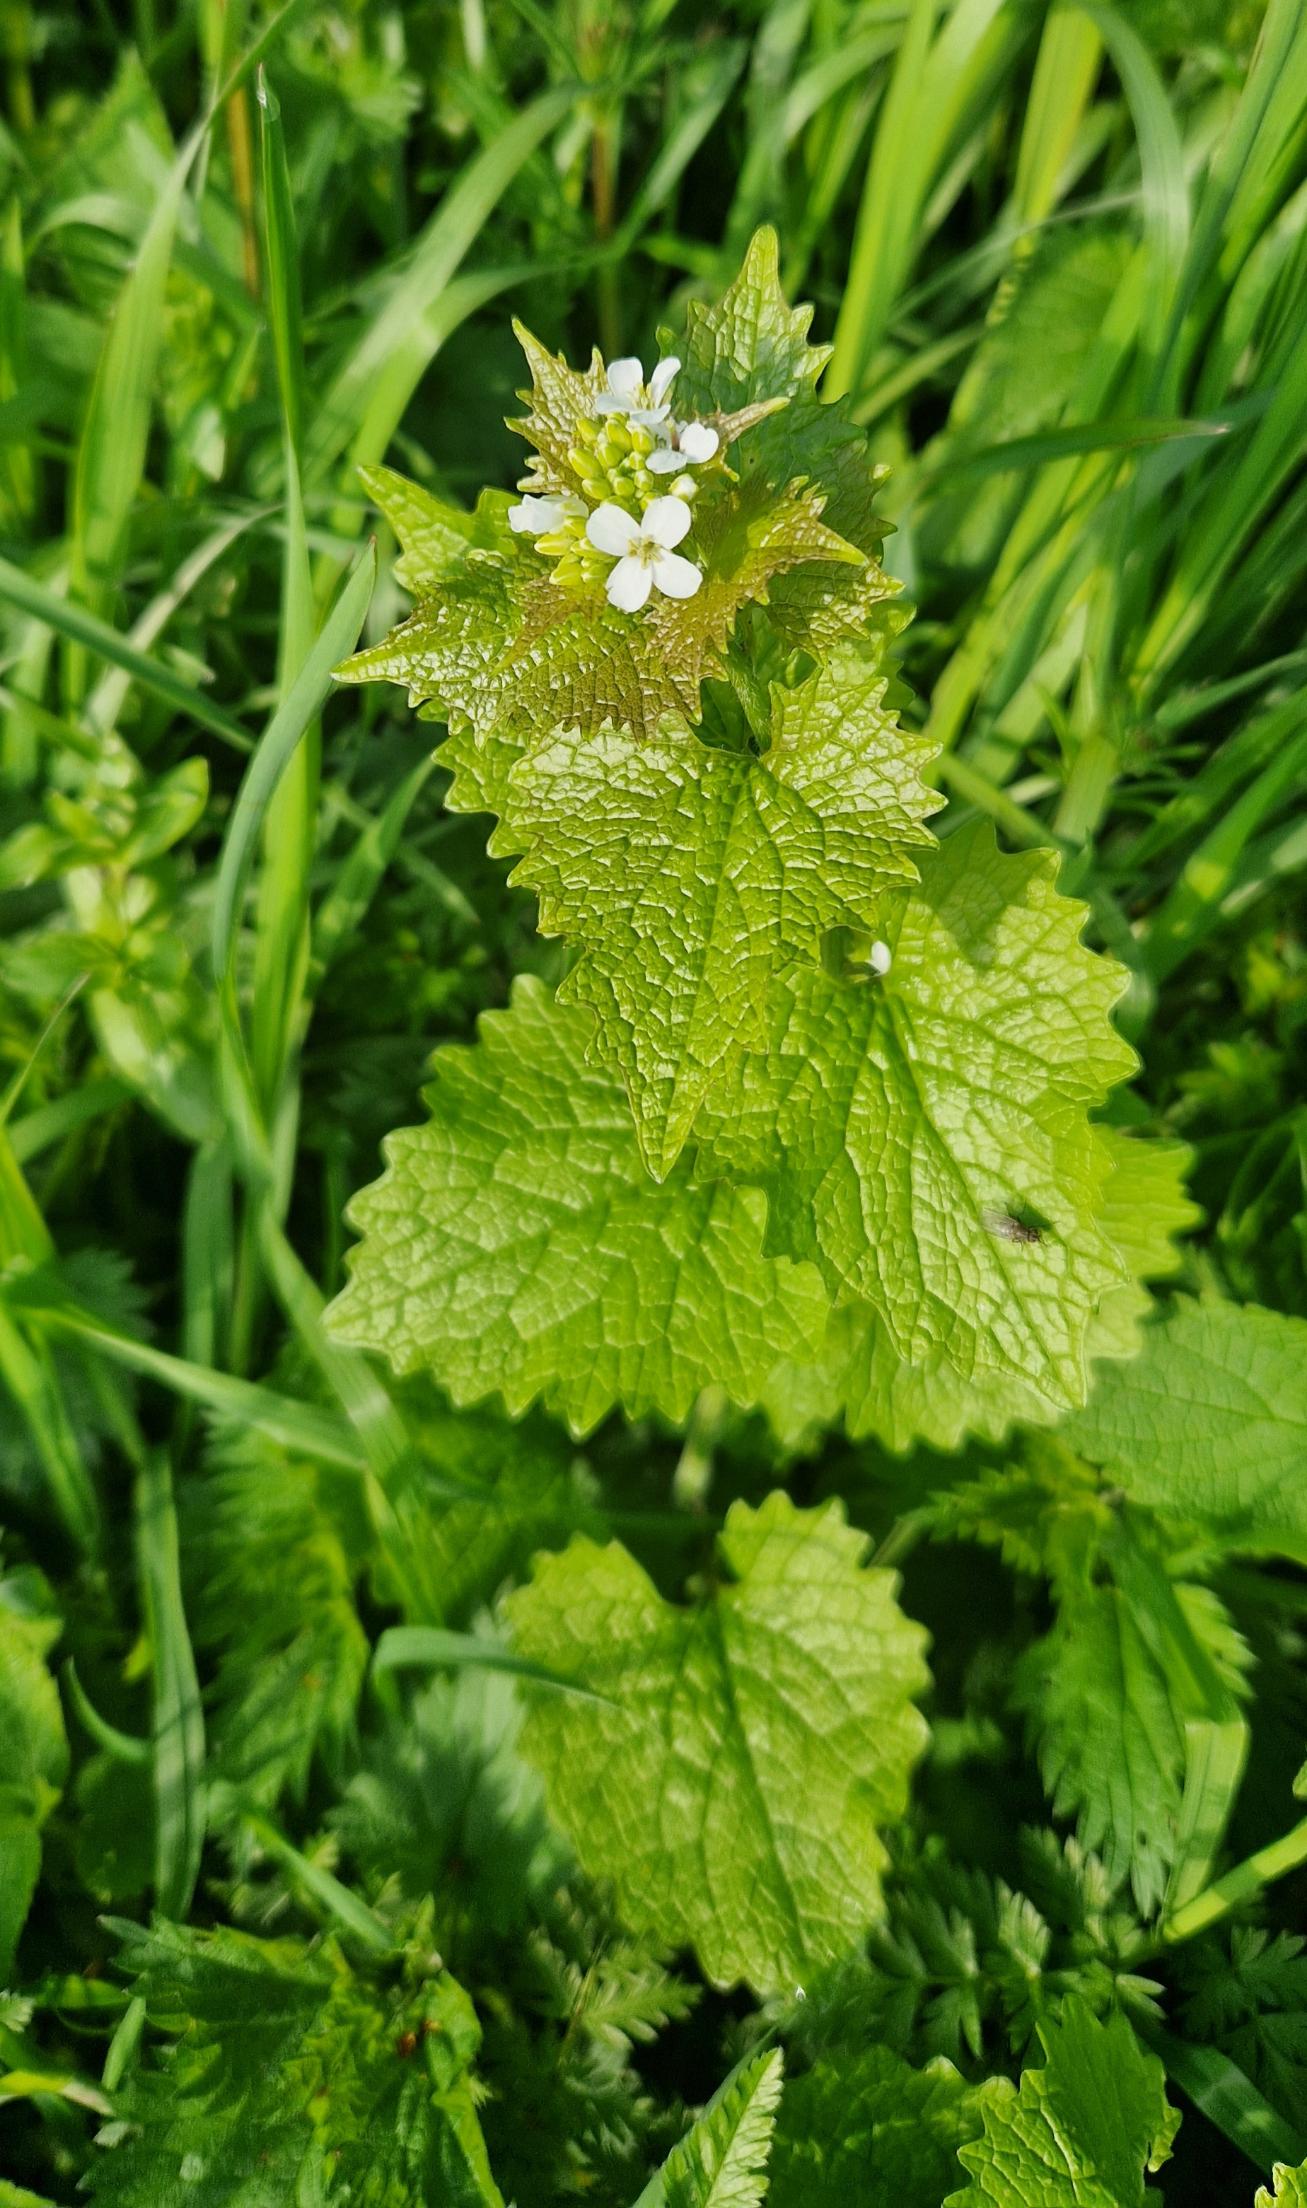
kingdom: Plantae
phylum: Tracheophyta
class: Magnoliopsida
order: Brassicales
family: Brassicaceae
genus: Alliaria
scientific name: Alliaria petiolata
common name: Løgkarse
